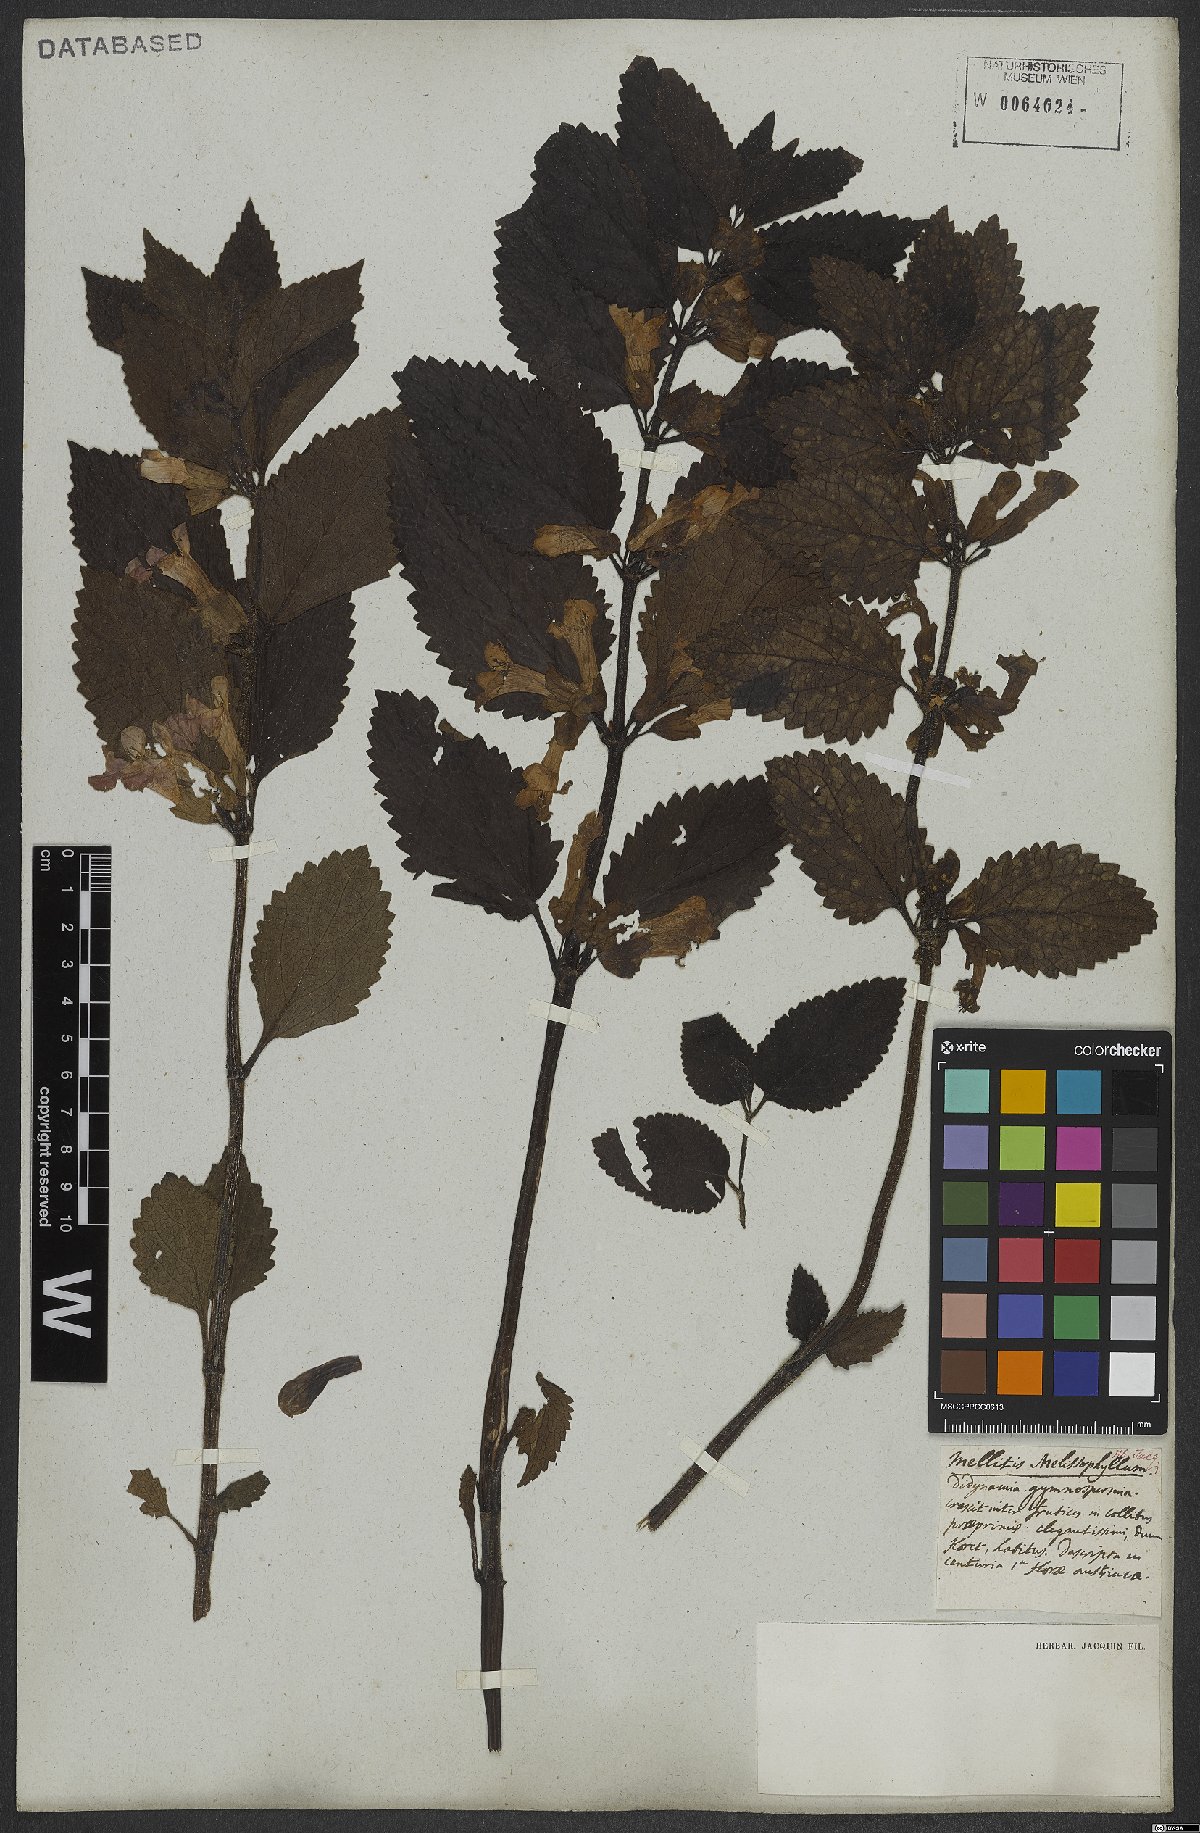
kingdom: Plantae
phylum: Tracheophyta
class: Magnoliopsida
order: Lamiales
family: Lamiaceae
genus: Melittis
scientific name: Melittis melissophyllum
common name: Bastard balm
